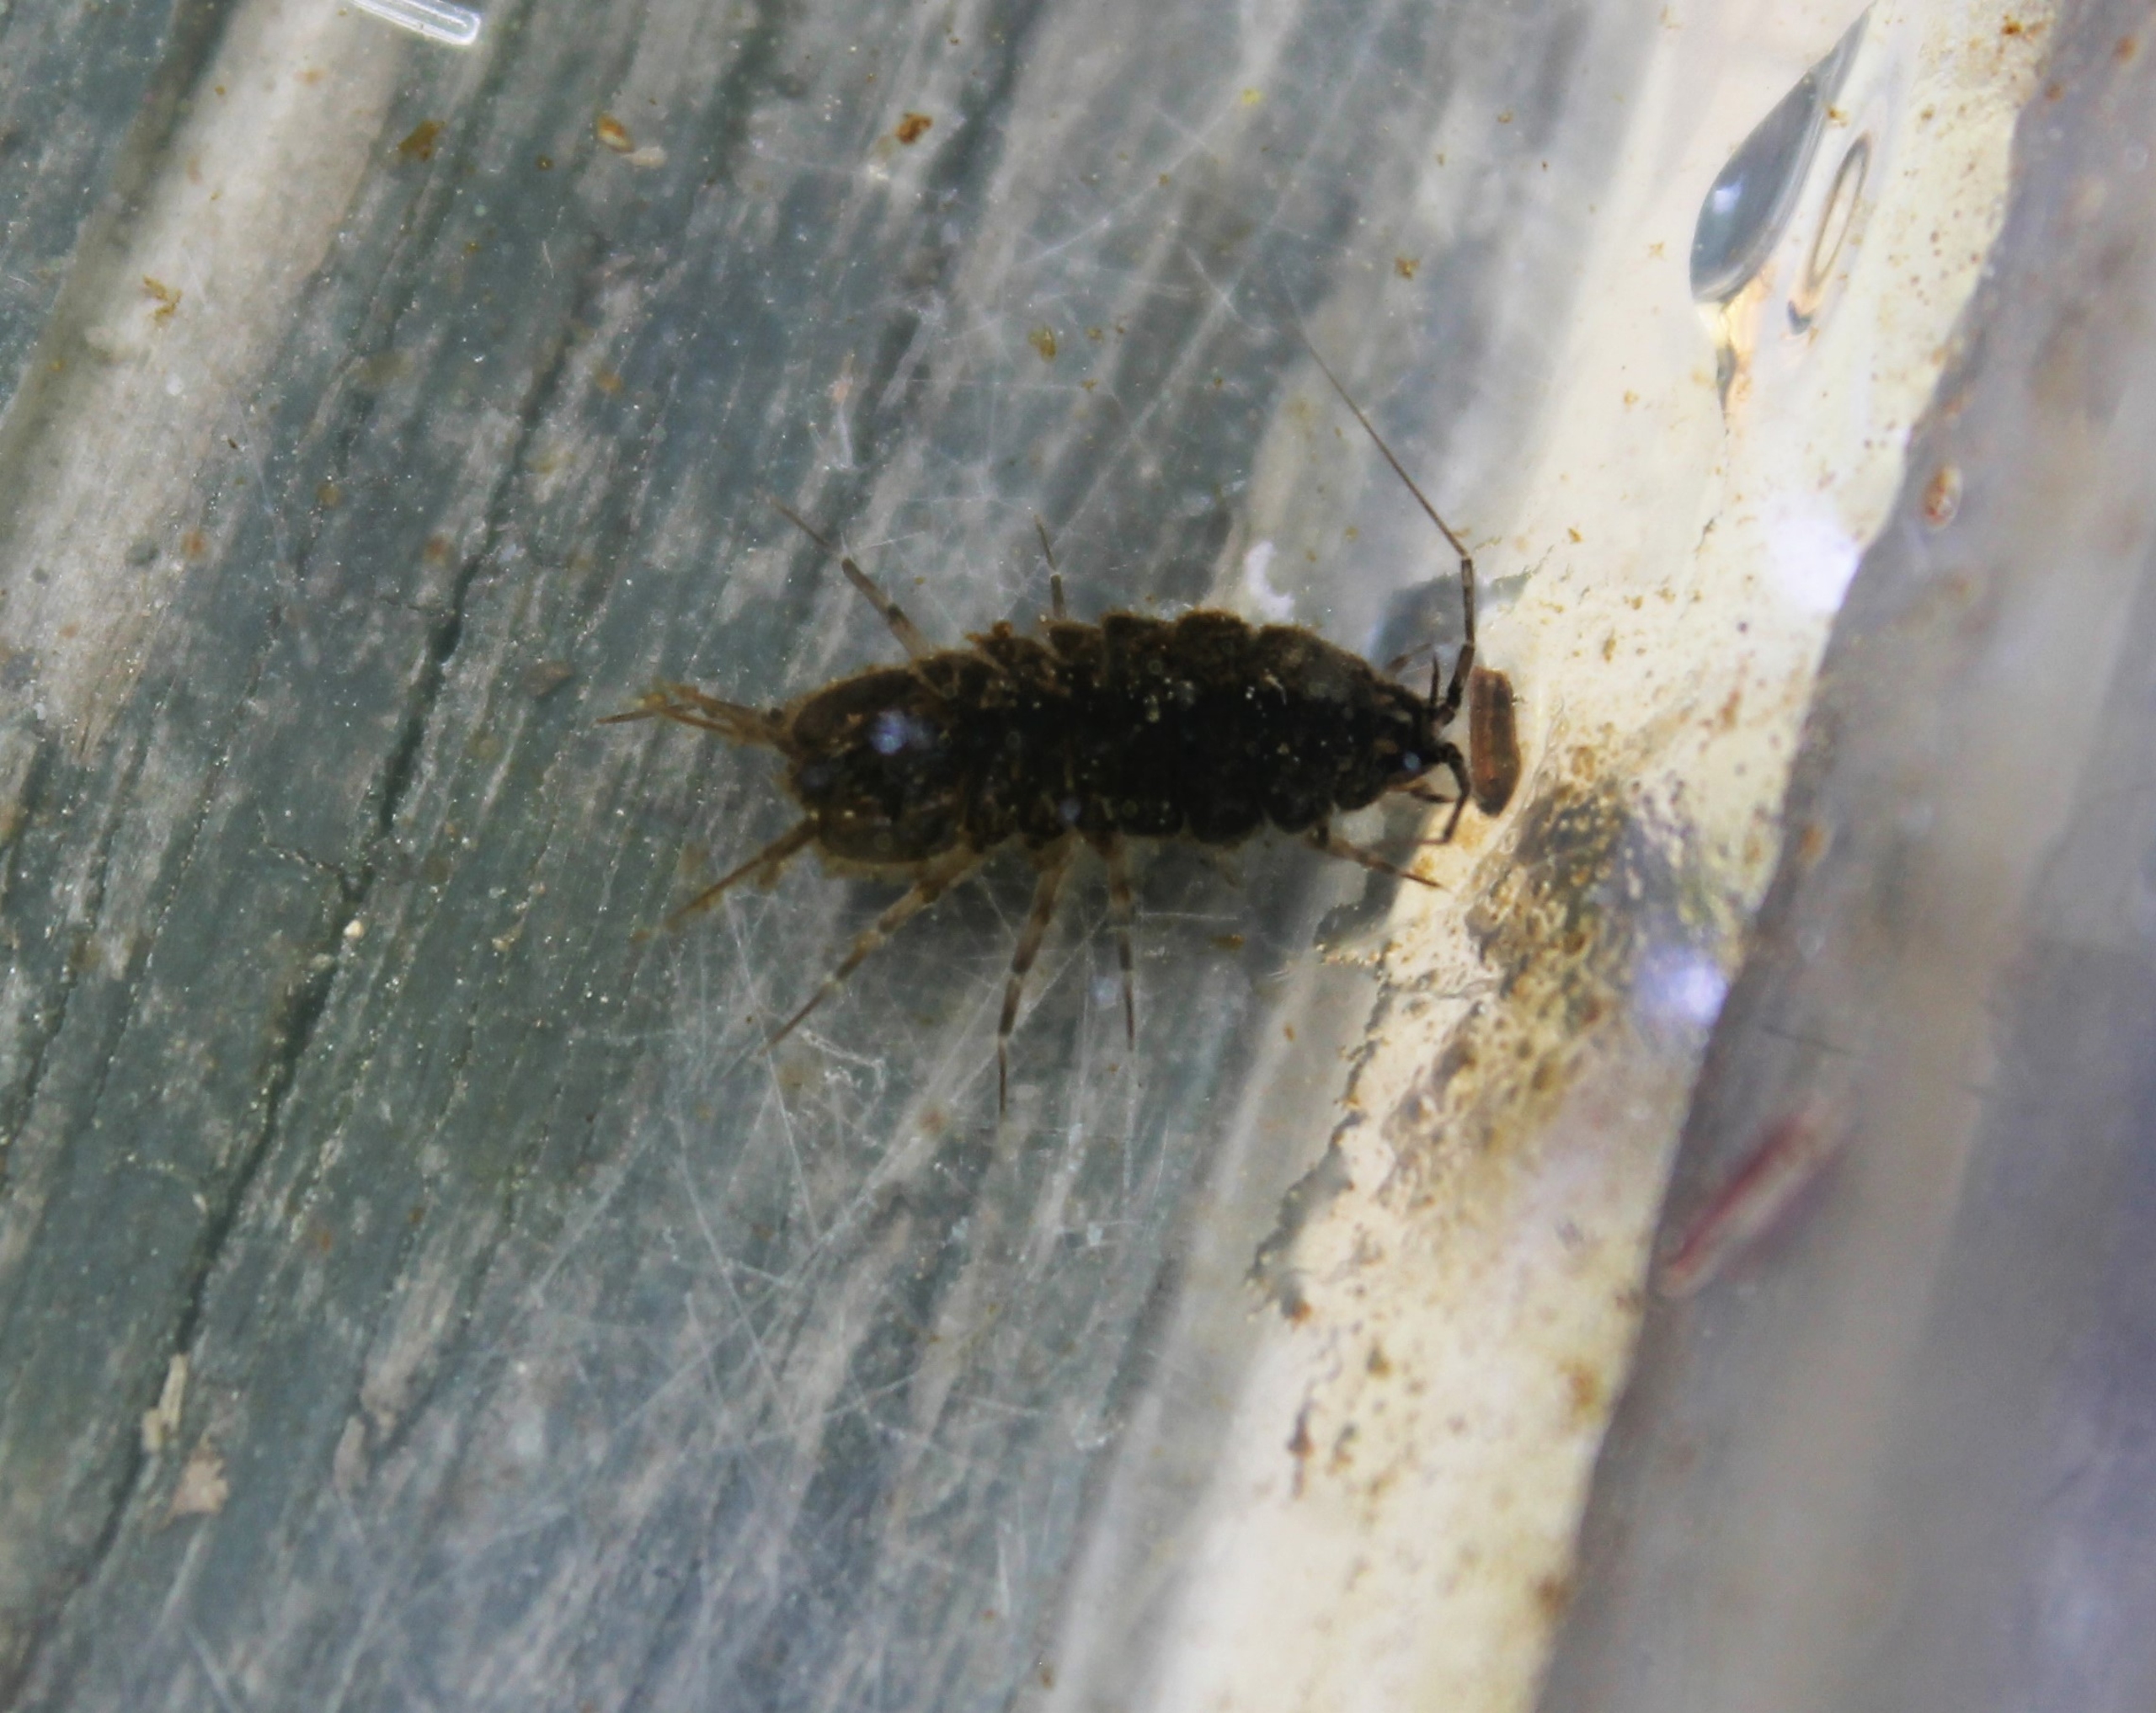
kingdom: Animalia
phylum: Arthropoda
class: Malacostraca
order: Isopoda
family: Asellidae
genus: Asellus
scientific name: Asellus aquaticus
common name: Vandbænkebider
